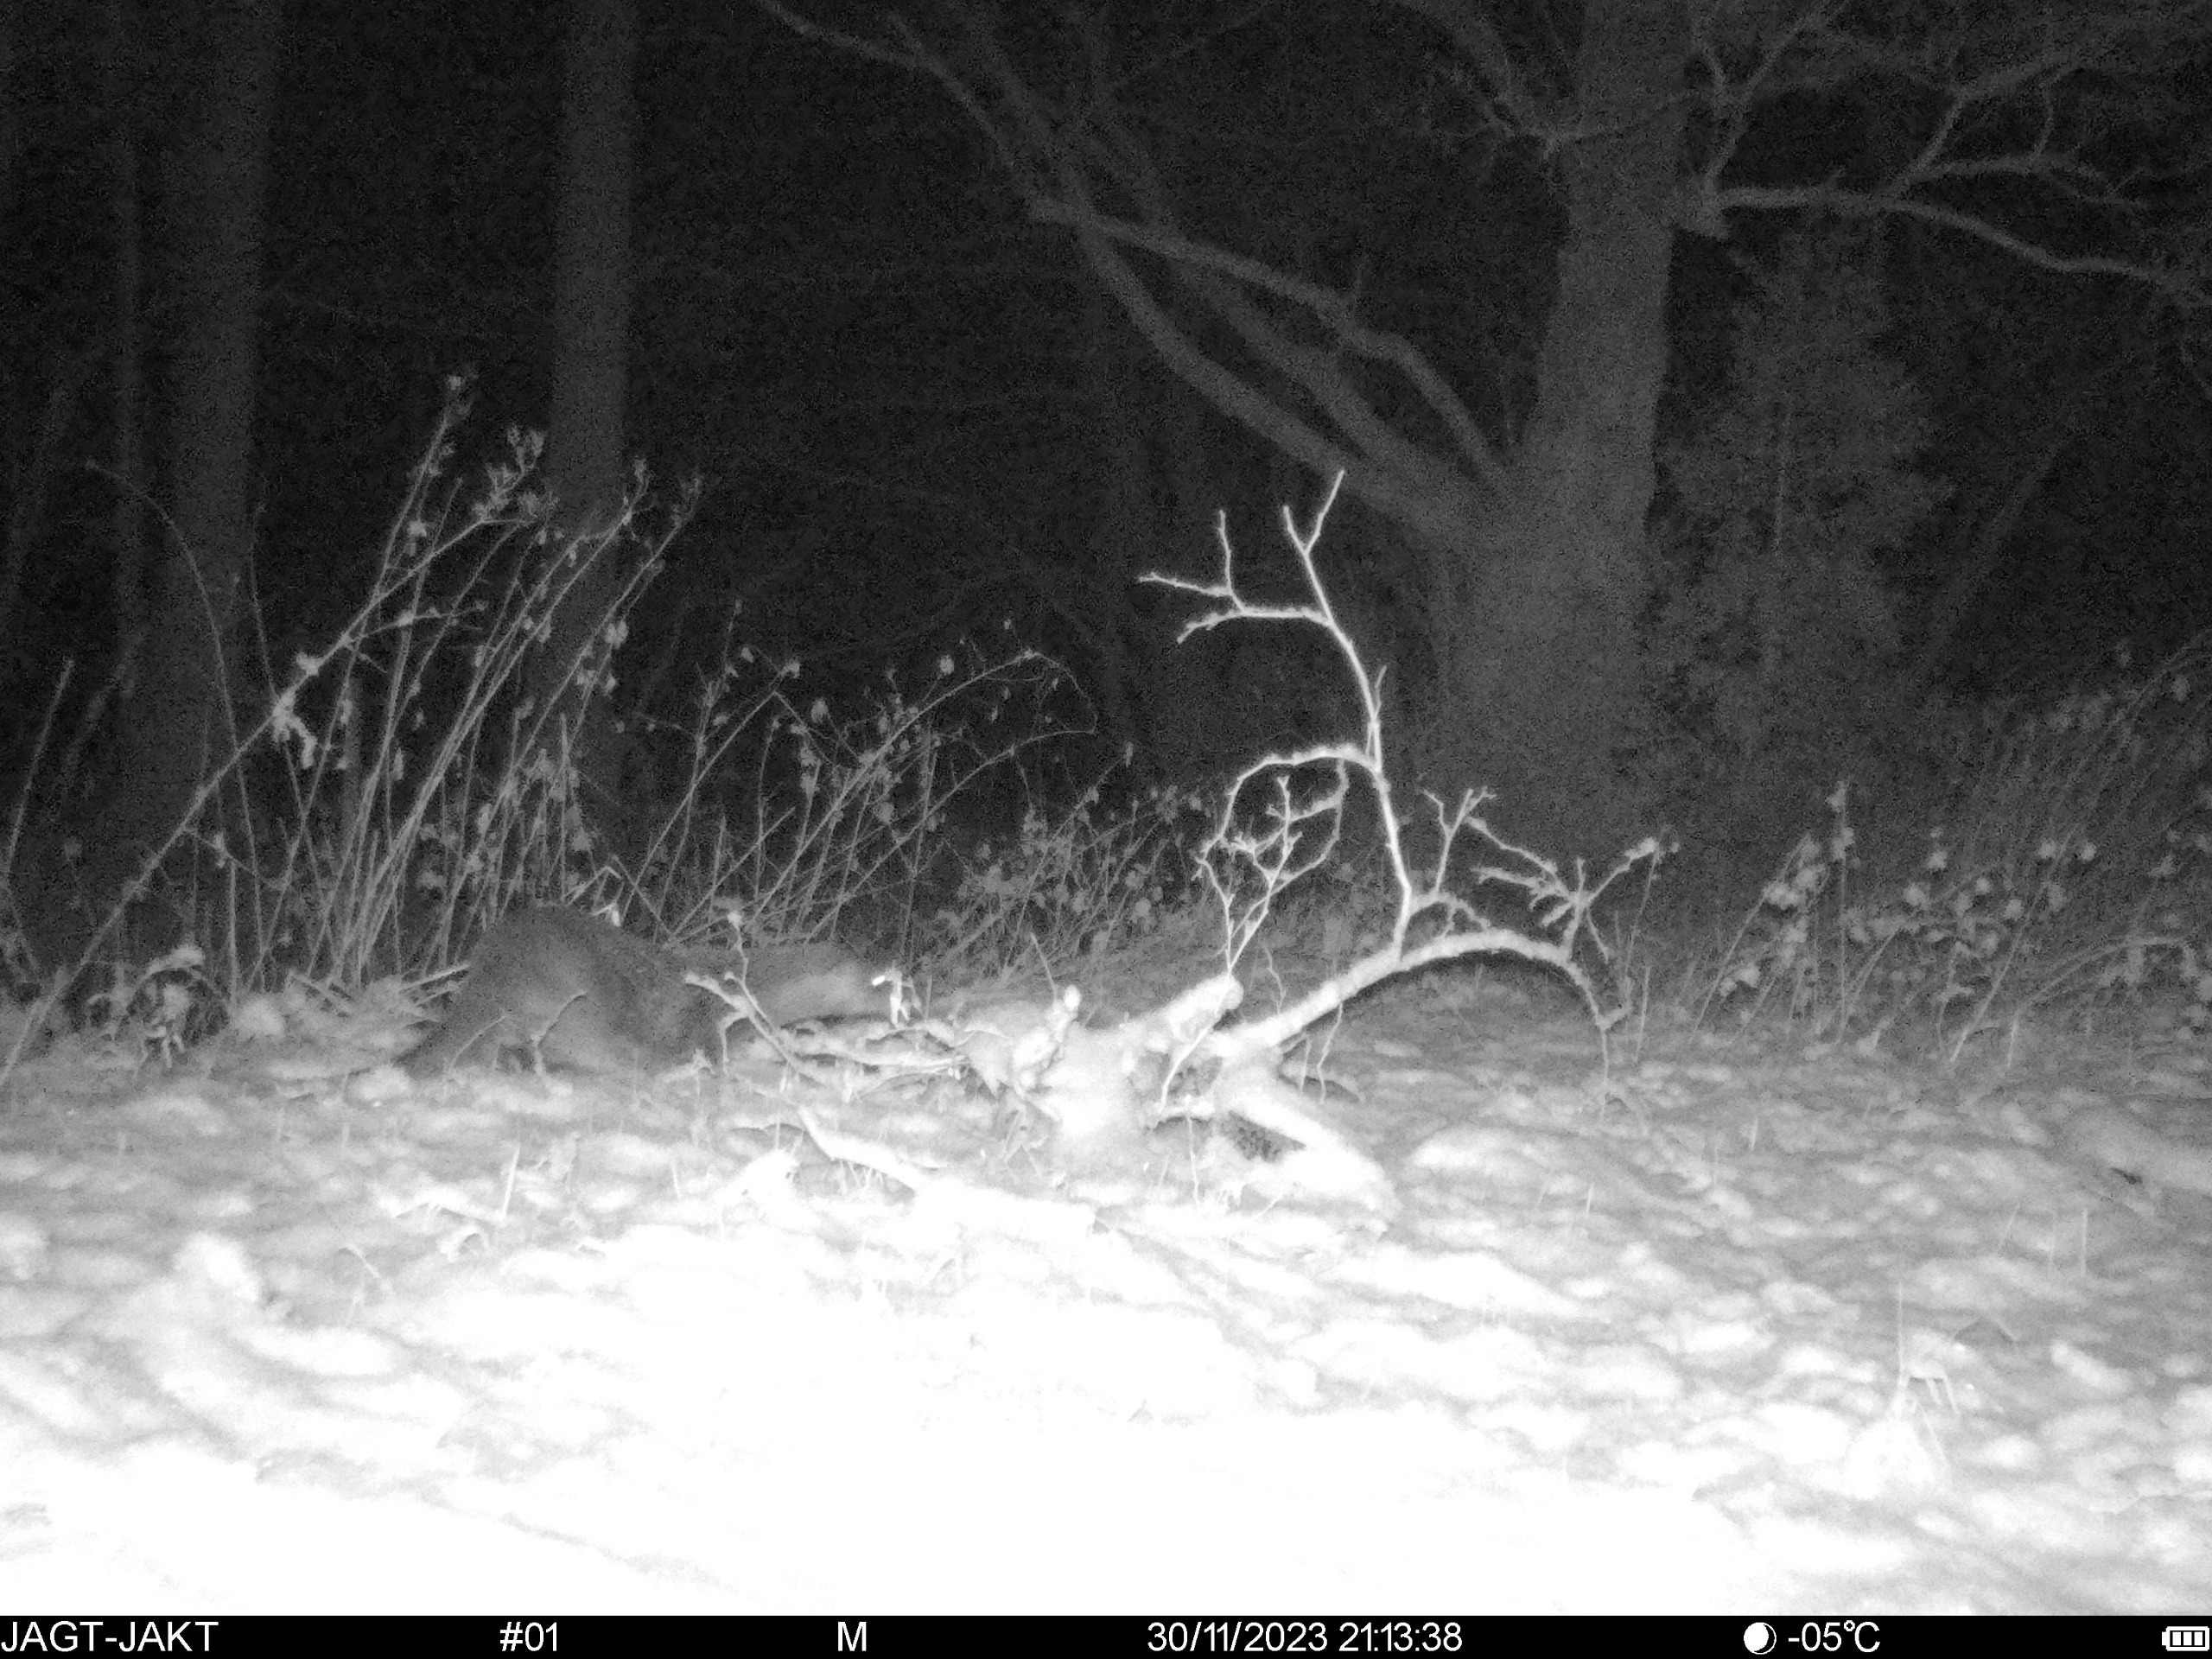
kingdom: Animalia
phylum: Chordata
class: Mammalia
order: Carnivora
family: Mustelidae
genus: Lutra
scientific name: Lutra lutra
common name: Odder
